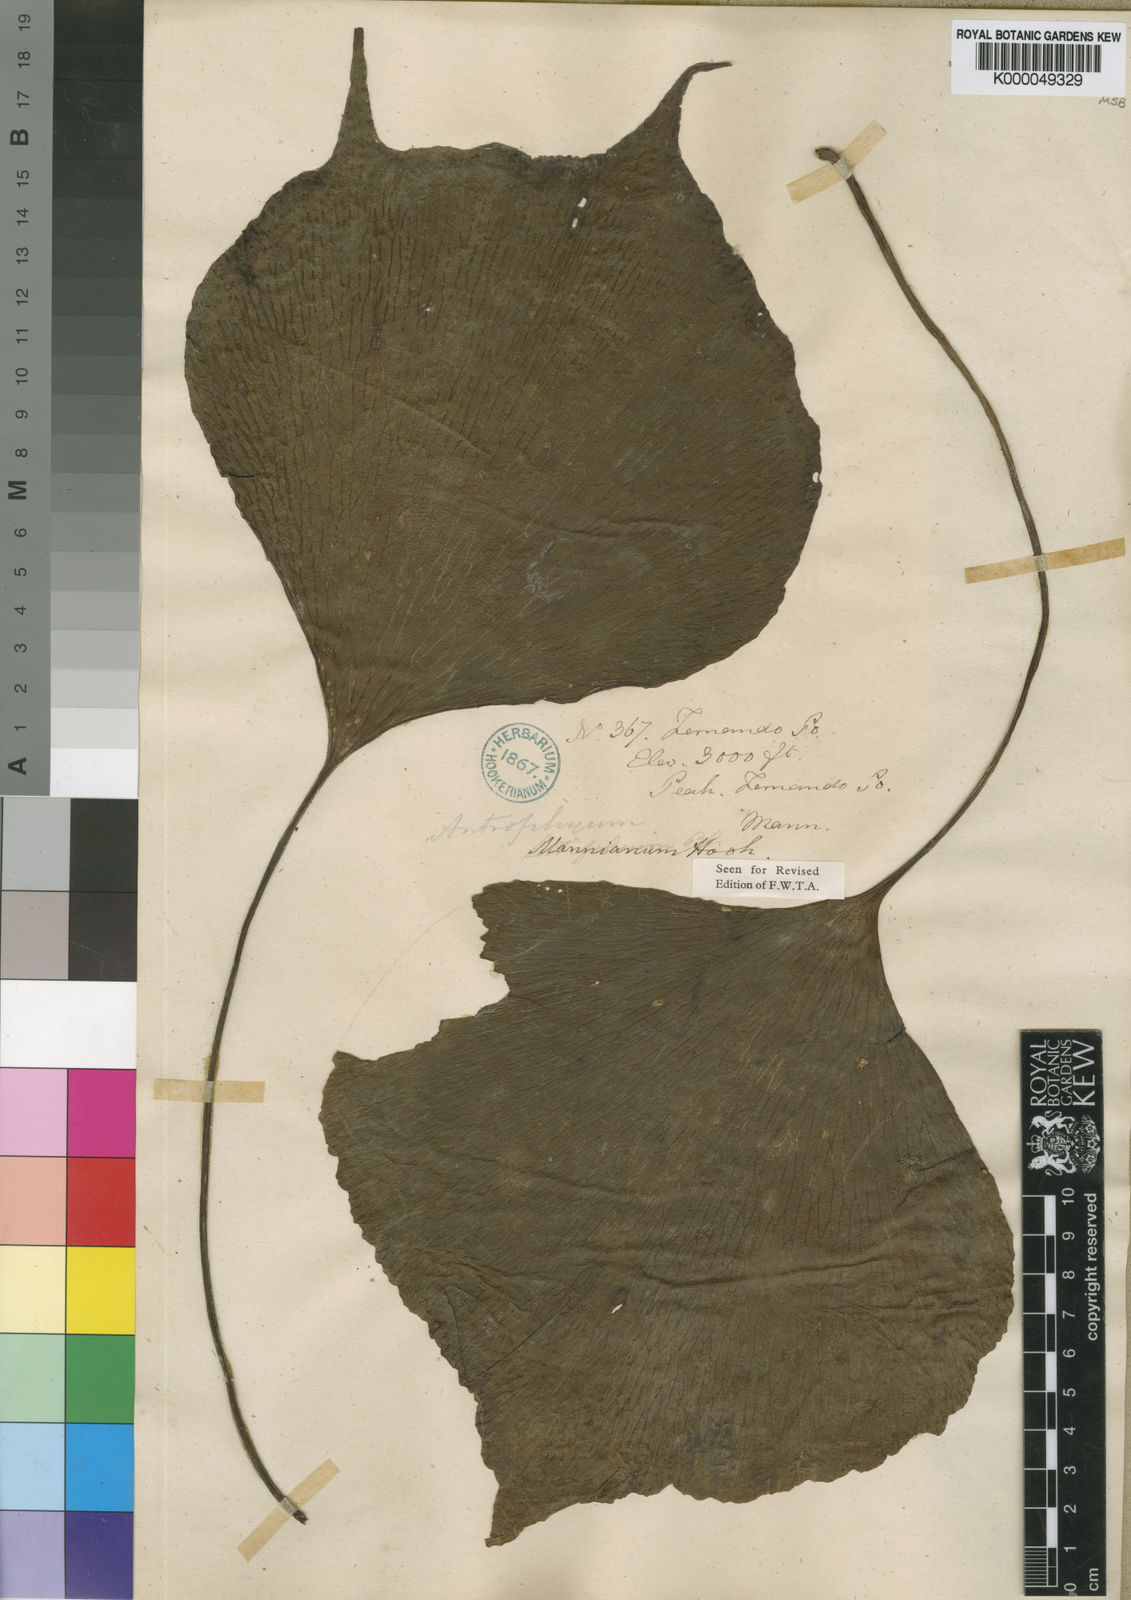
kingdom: Plantae
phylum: Tracheophyta
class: Polypodiopsida
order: Polypodiales
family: Pteridaceae
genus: Antrophyopsis
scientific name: Antrophyopsis manniana
